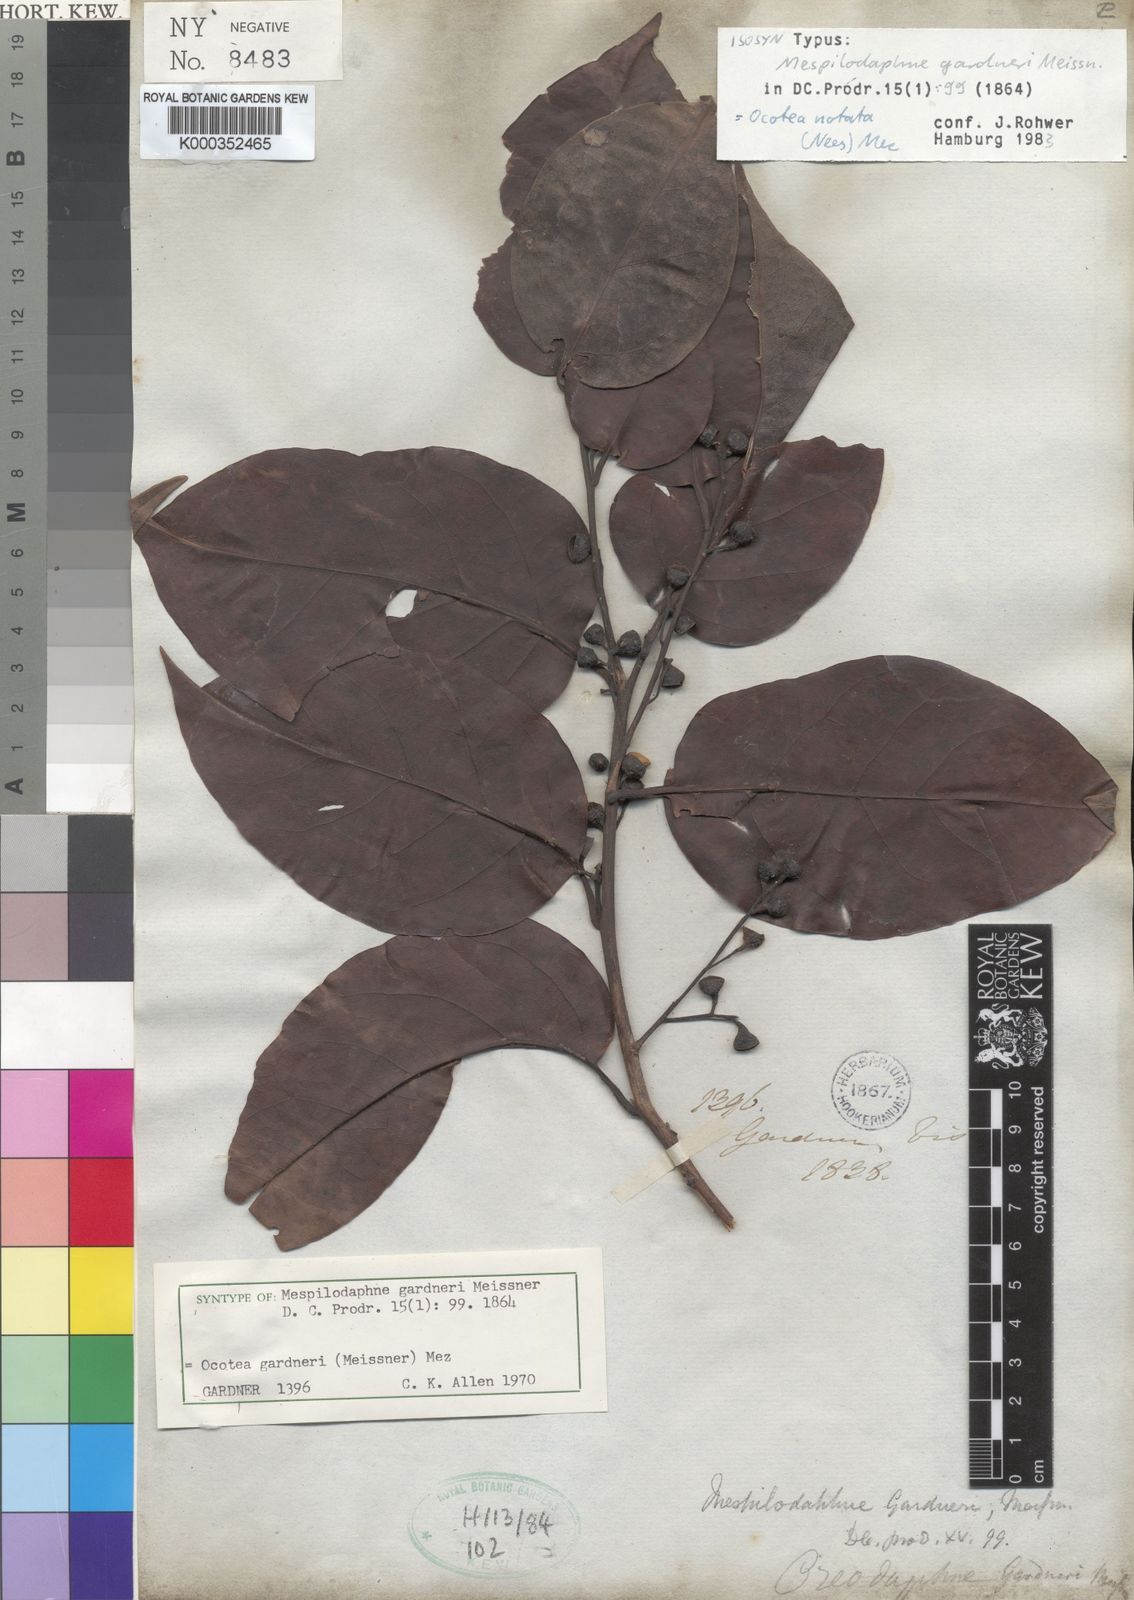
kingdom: Plantae
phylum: Tracheophyta
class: Magnoliopsida
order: Laurales
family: Lauraceae
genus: Mespilodaphne
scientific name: Mespilodaphne gardneri
